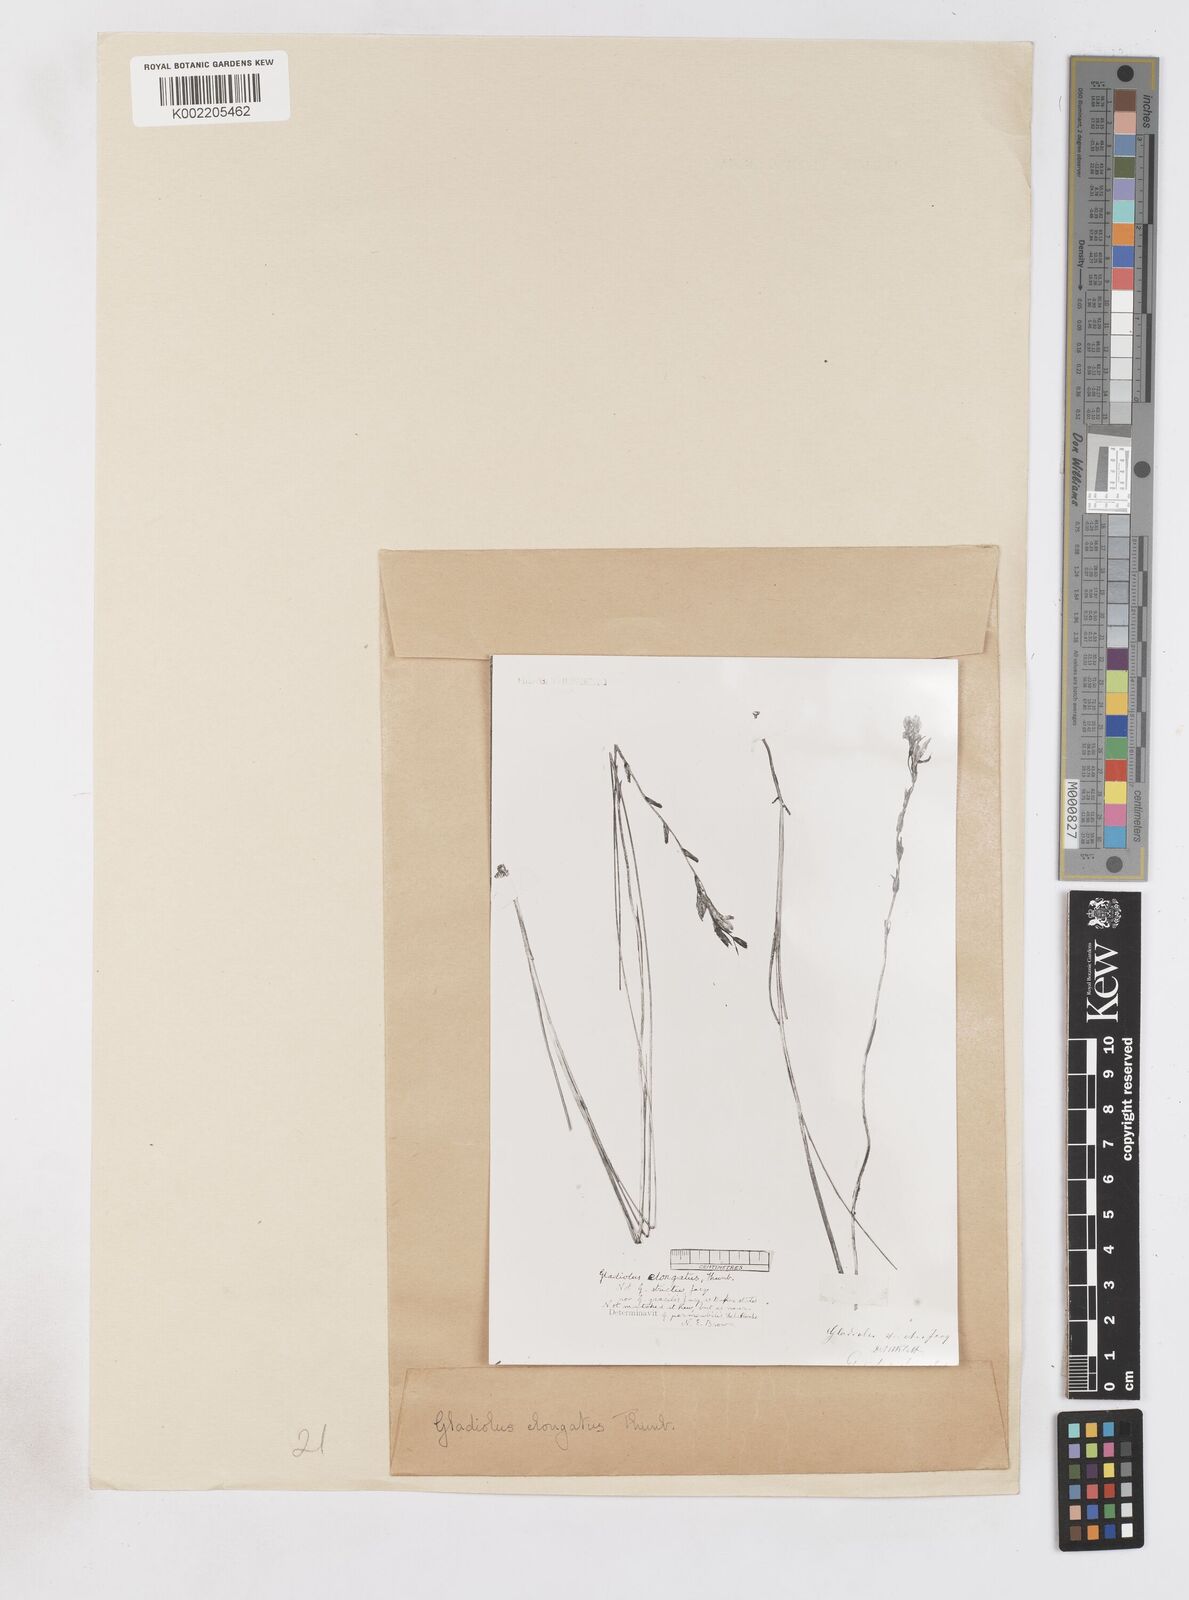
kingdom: Plantae
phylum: Tracheophyta
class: Liliopsida
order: Asparagales
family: Iridaceae
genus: Gladiolus
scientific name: Gladiolus stellatus
